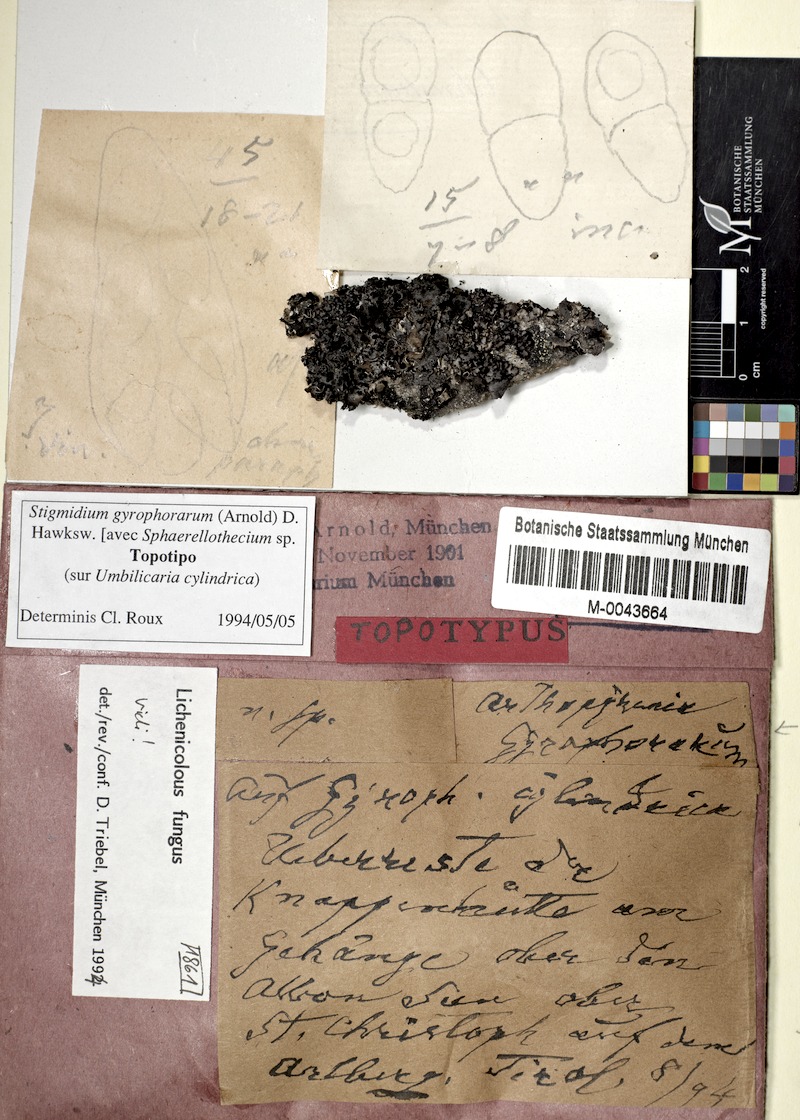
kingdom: Fungi
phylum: Ascomycota
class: Lecanoromycetes
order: Umbilicariales
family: Umbilicariaceae
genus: Umbilicaria
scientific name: Umbilicaria cylindrica
